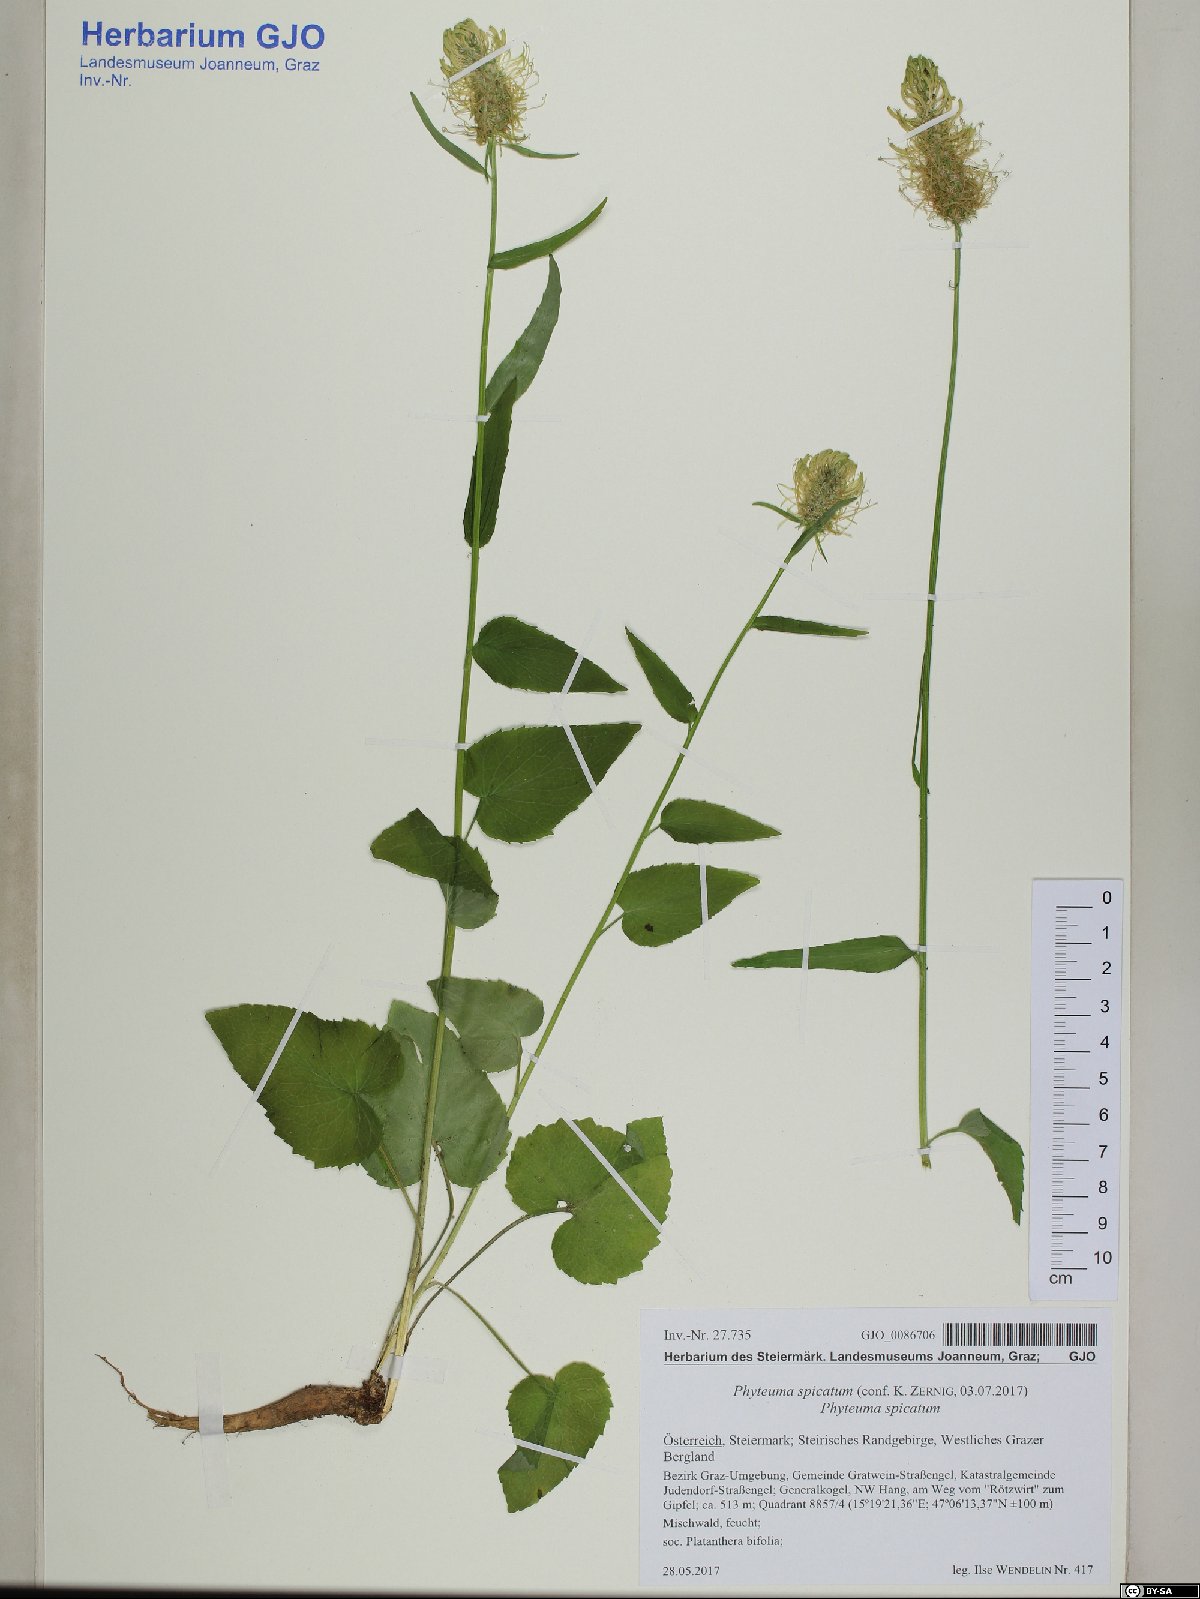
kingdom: Plantae
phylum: Tracheophyta
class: Magnoliopsida
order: Asterales
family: Campanulaceae
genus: Phyteuma
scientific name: Phyteuma spicatum
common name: Spiked rampion
